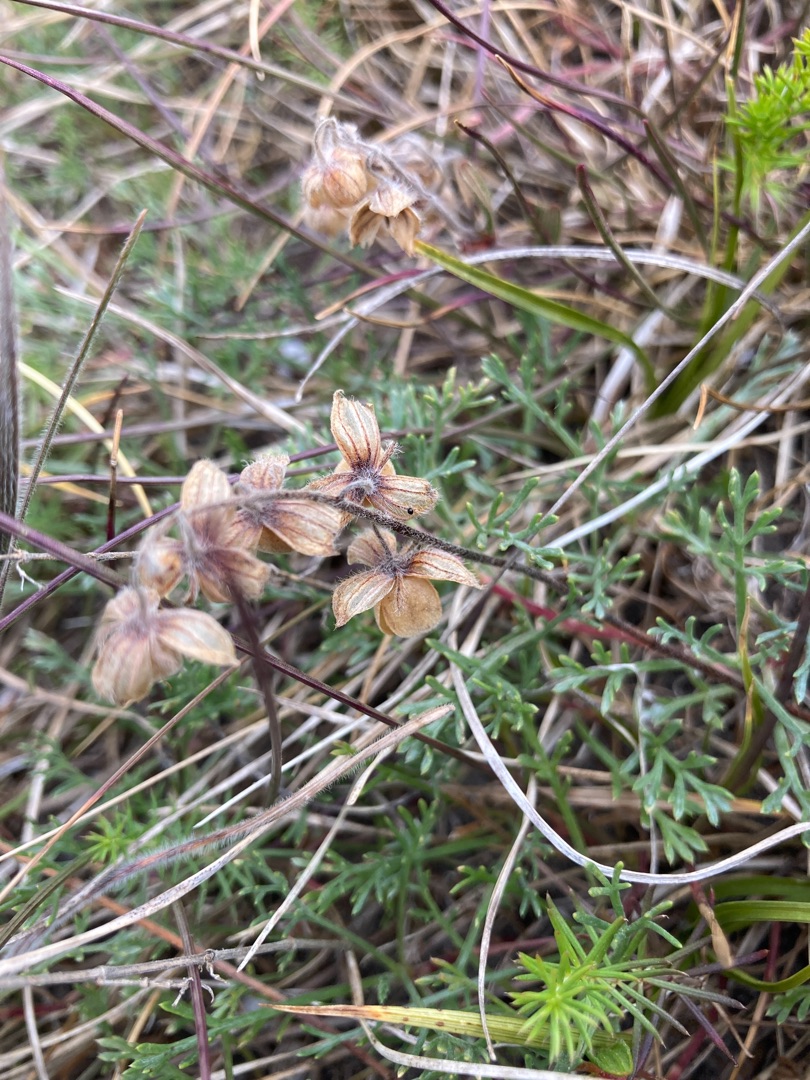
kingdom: Plantae
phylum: Tracheophyta
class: Magnoliopsida
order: Malvales
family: Cistaceae
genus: Helianthemum
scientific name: Helianthemum nummularium
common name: Bakke-soløje
